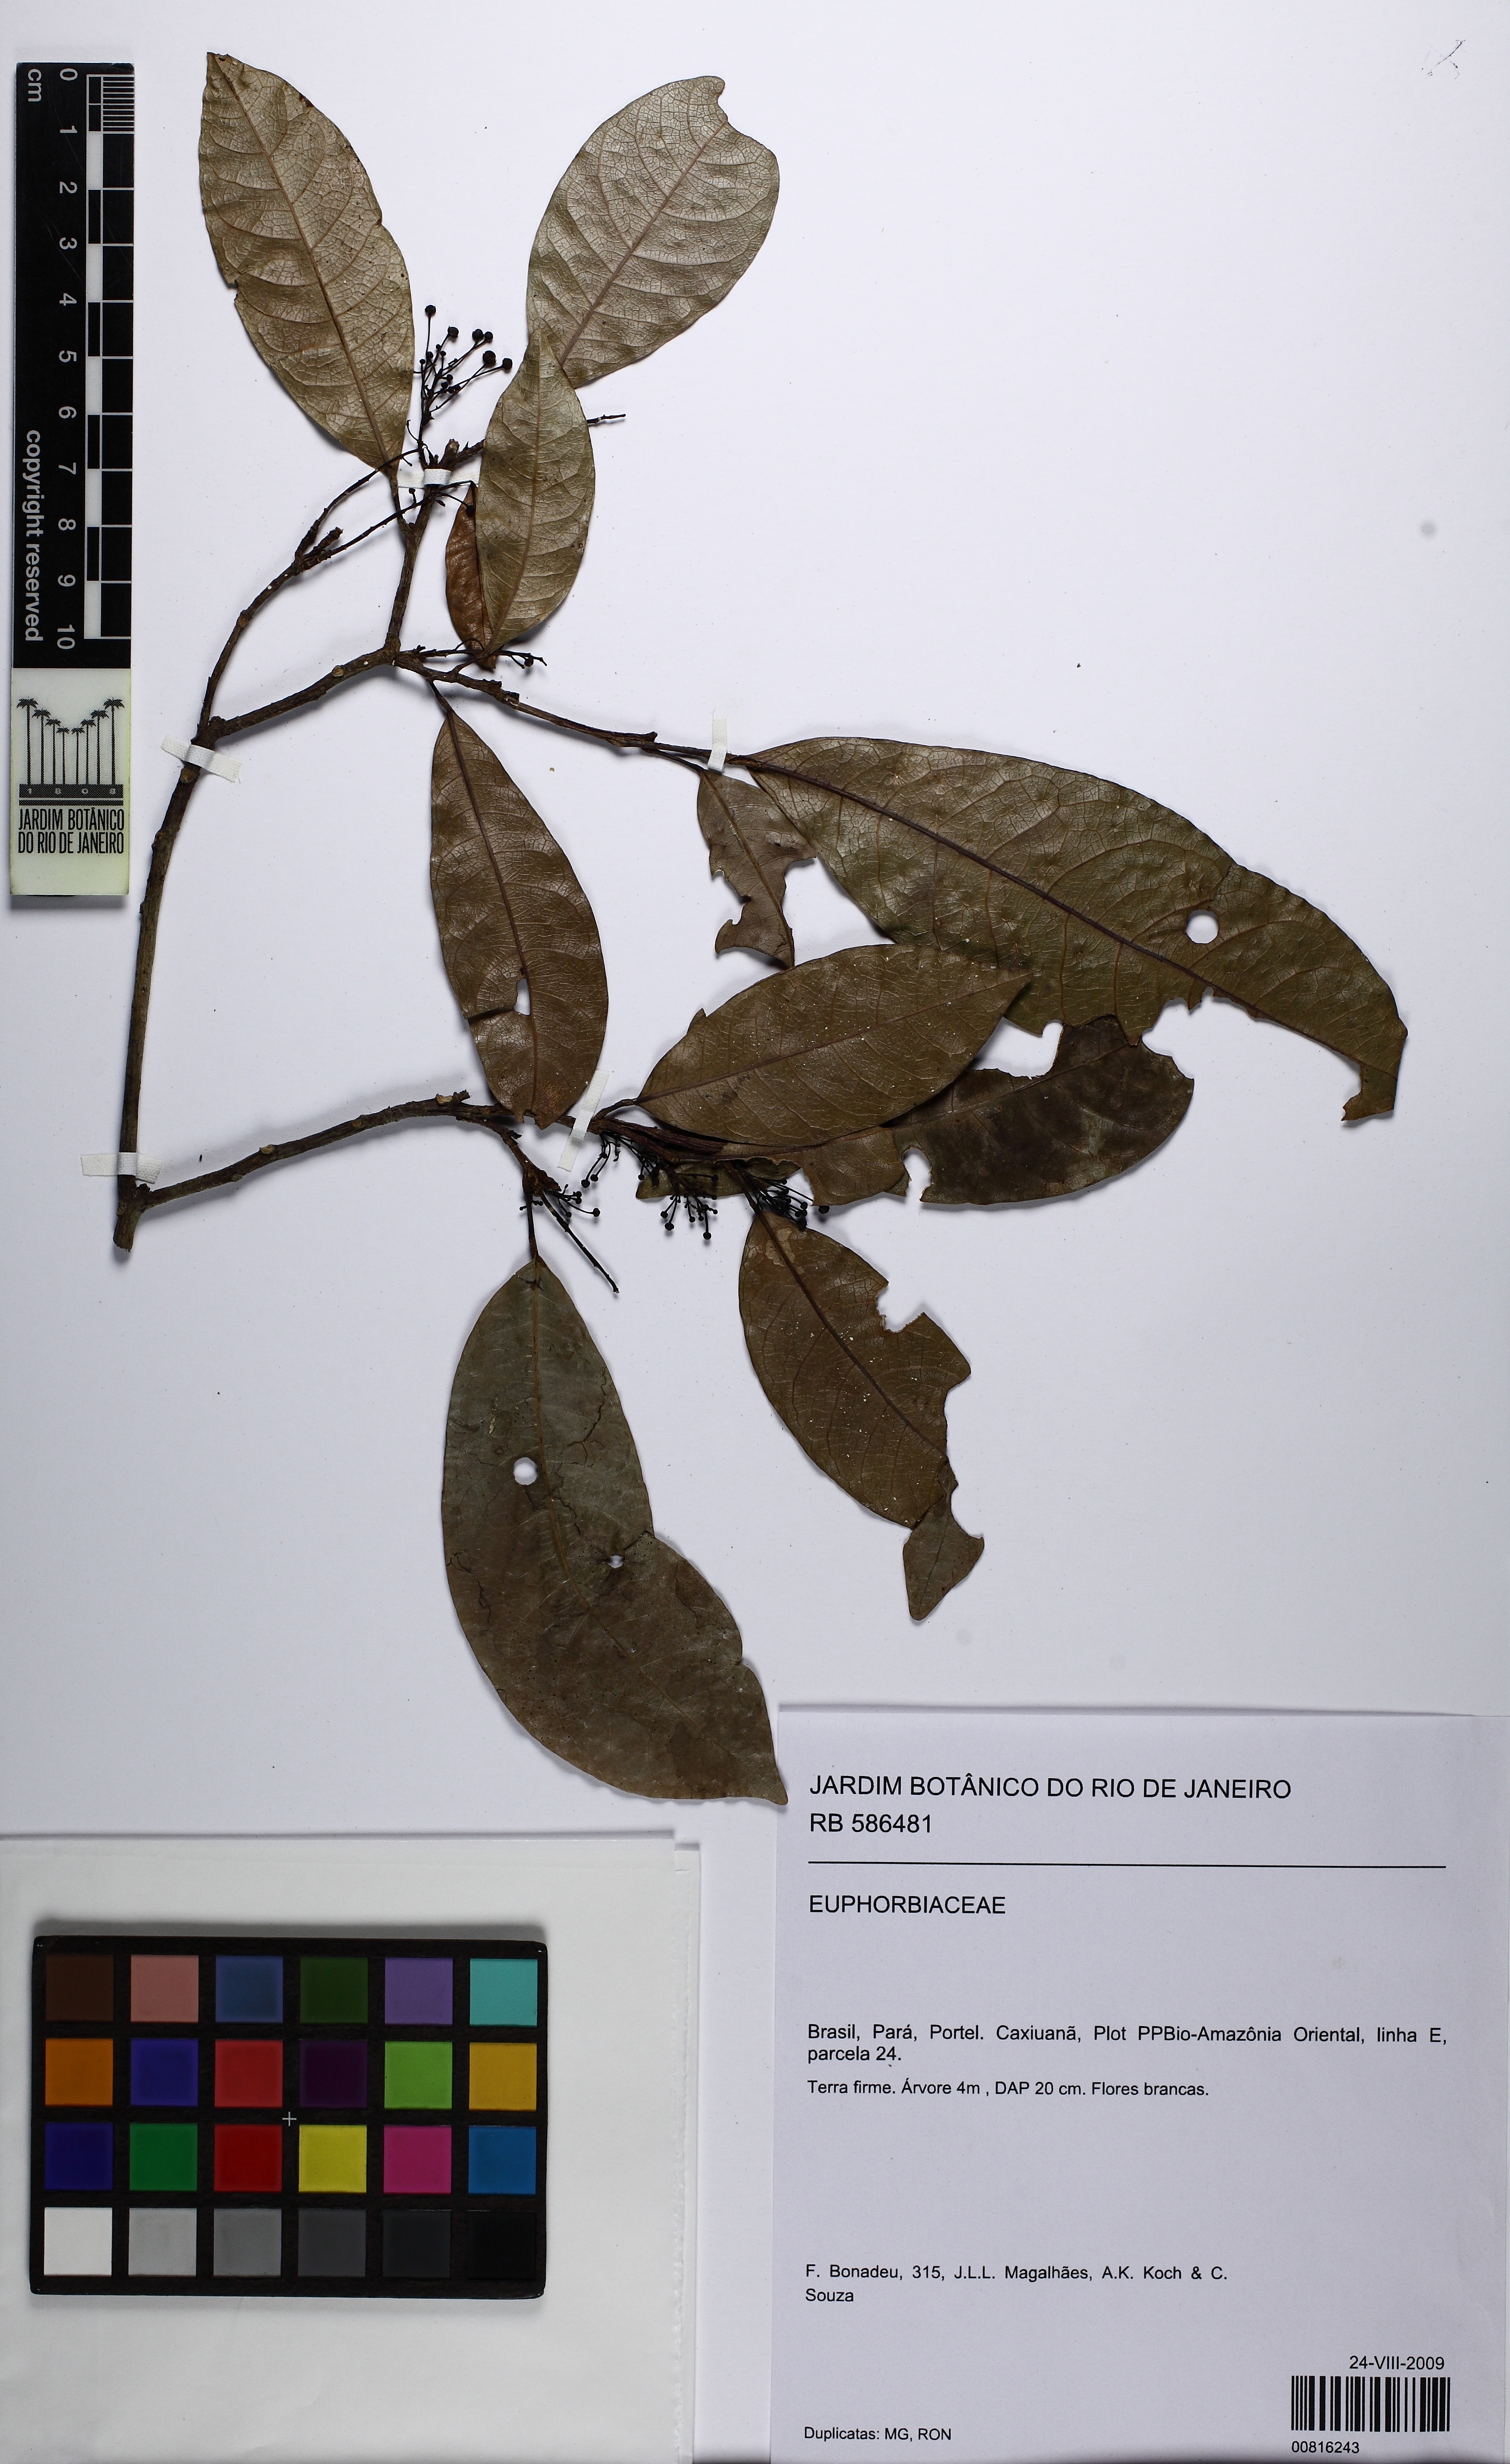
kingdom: Plantae
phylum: Tracheophyta
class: Magnoliopsida
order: Malpighiales
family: Euphorbiaceae
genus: Sagotia
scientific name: Sagotia racemosa
